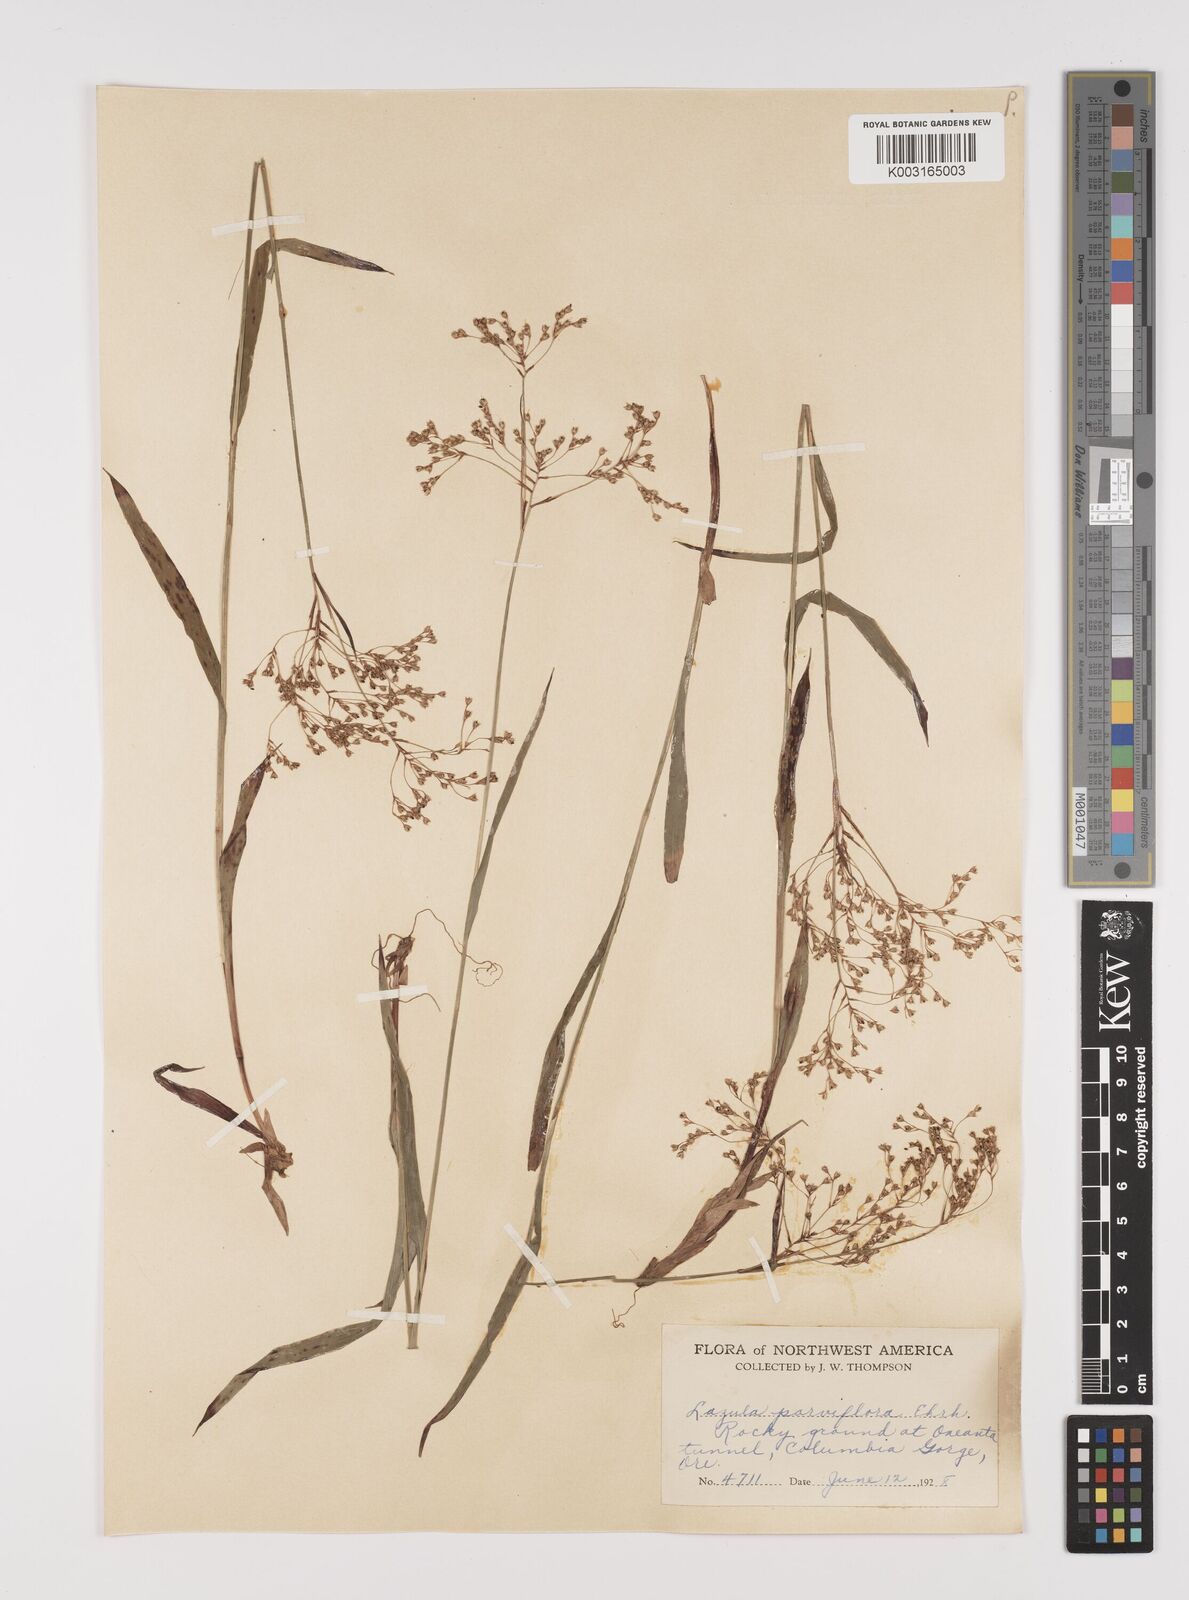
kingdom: Plantae
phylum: Tracheophyta
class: Liliopsida
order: Poales
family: Juncaceae
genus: Luzula
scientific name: Luzula parviflora
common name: Millet woodrush
